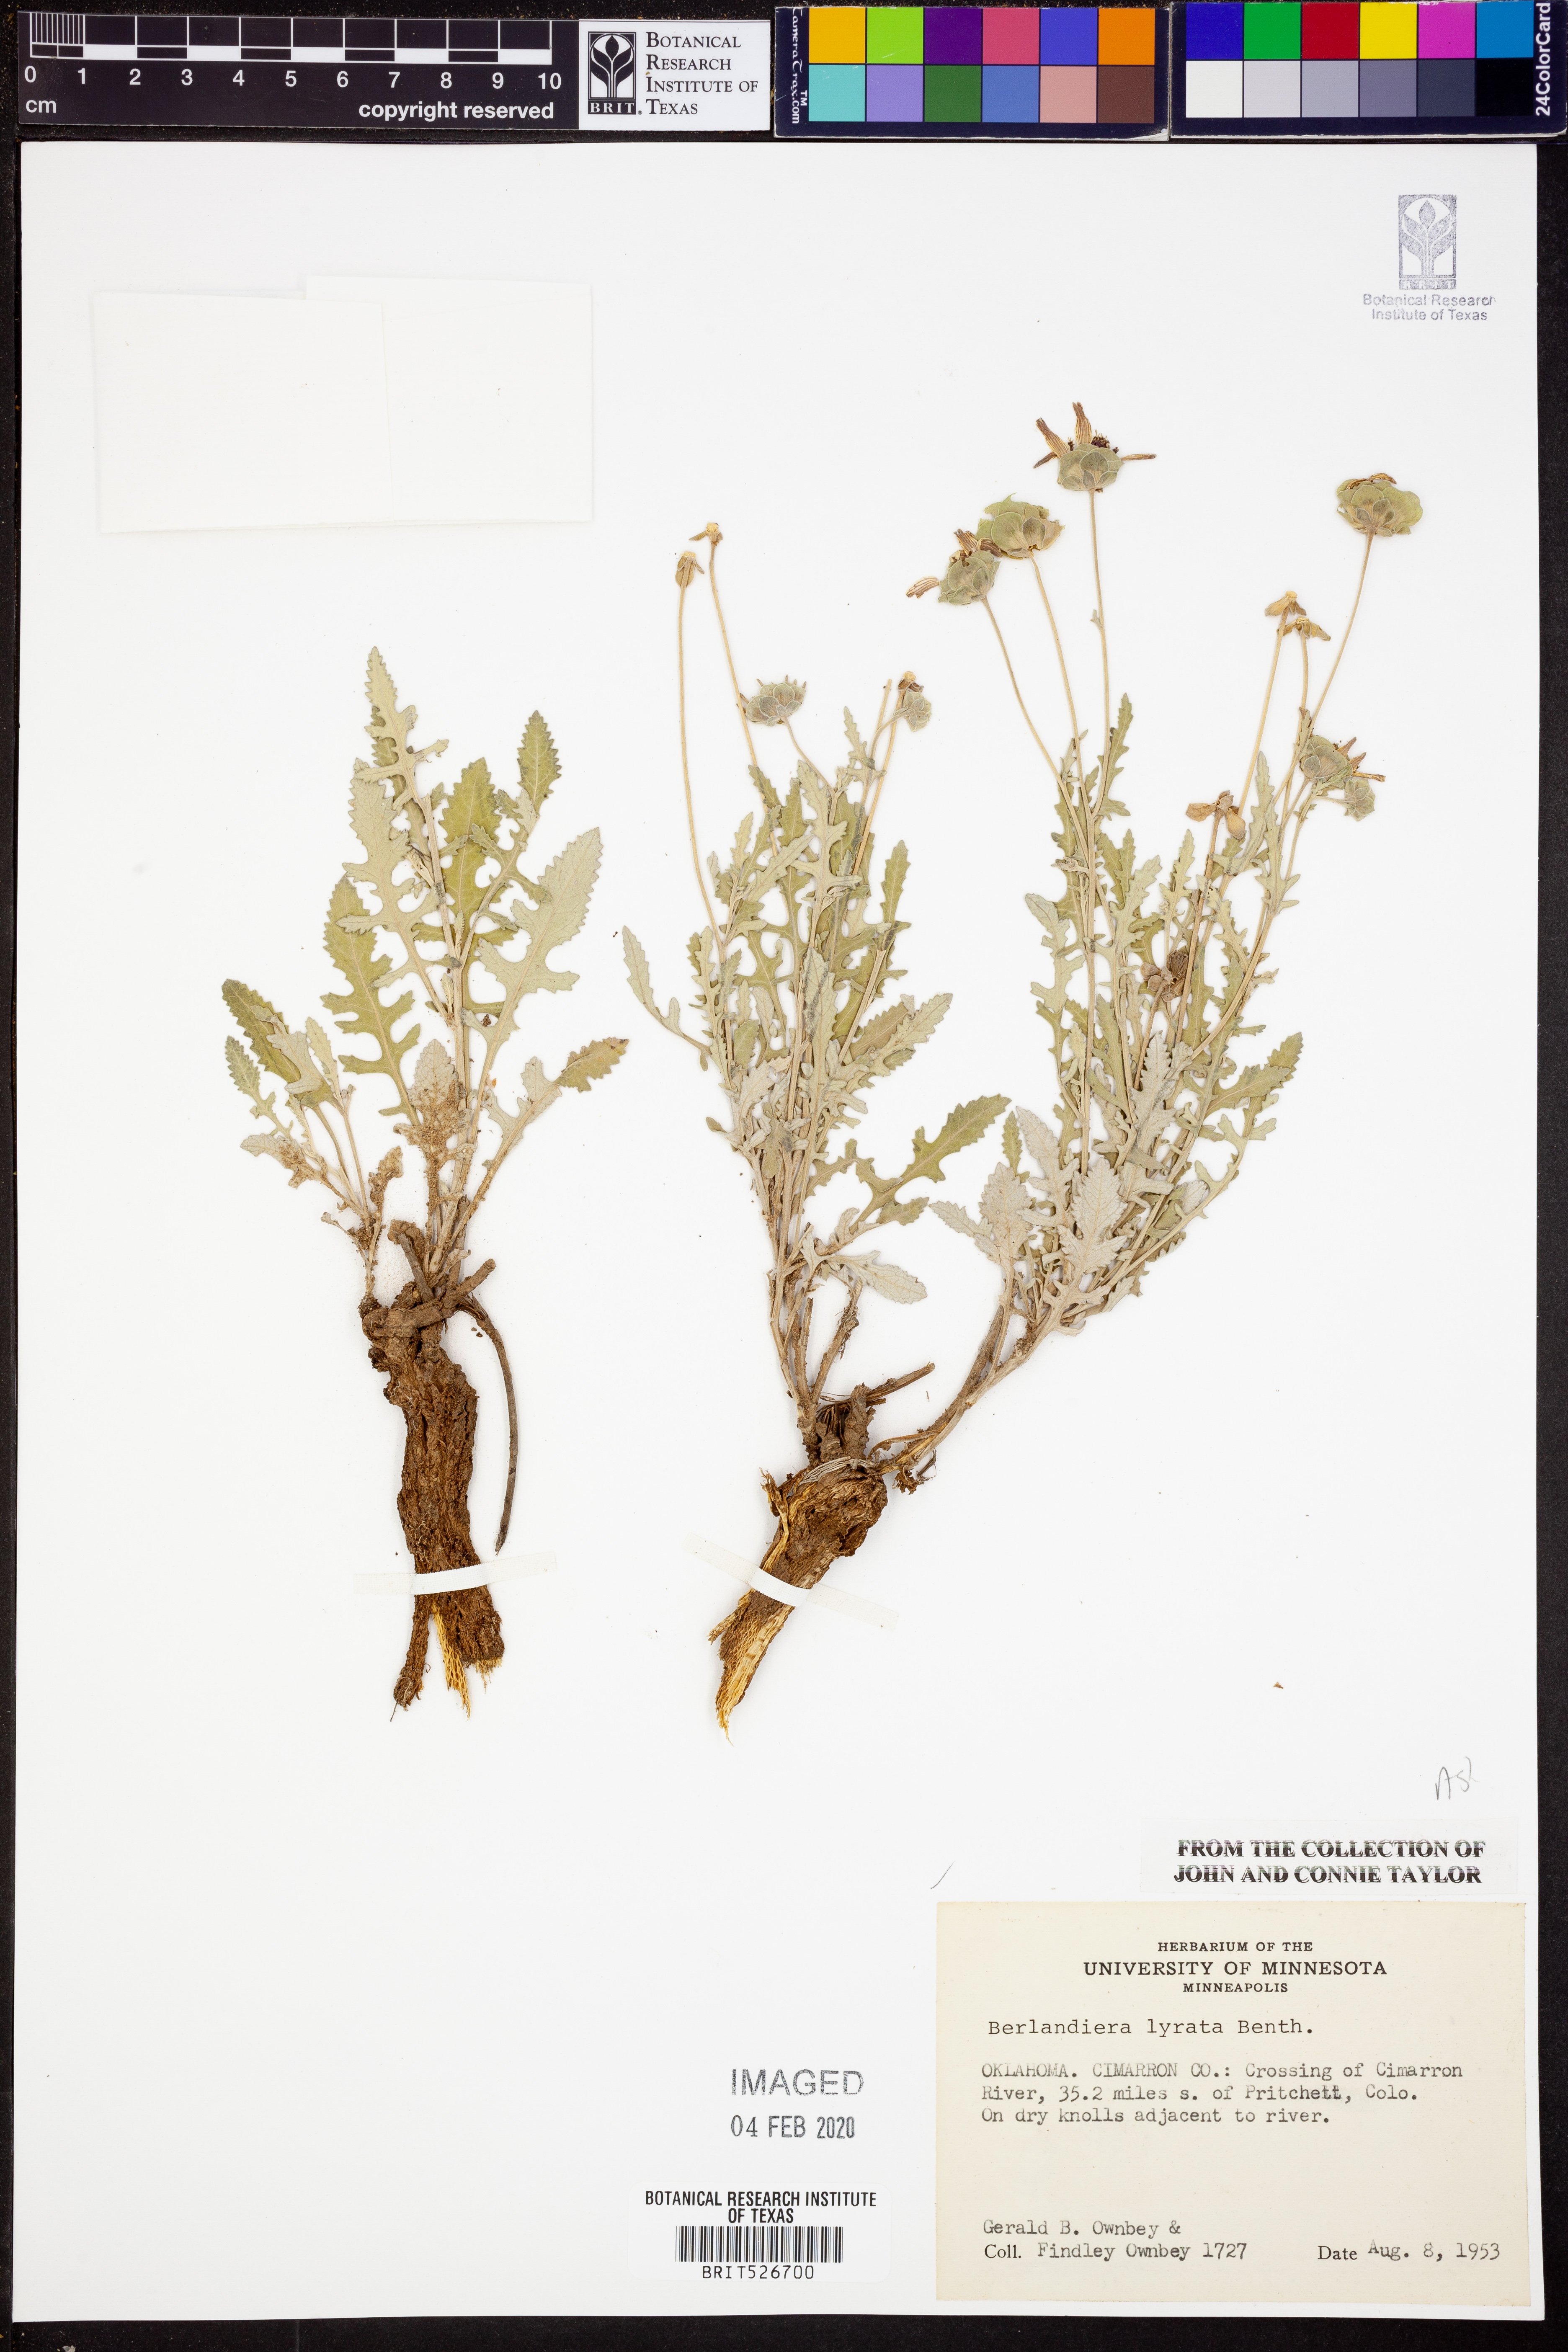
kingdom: Plantae
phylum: Tracheophyta
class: Magnoliopsida
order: Asterales
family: Asteraceae
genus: Berlandiera
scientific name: Berlandiera lyrata
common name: Chocolate-flower
